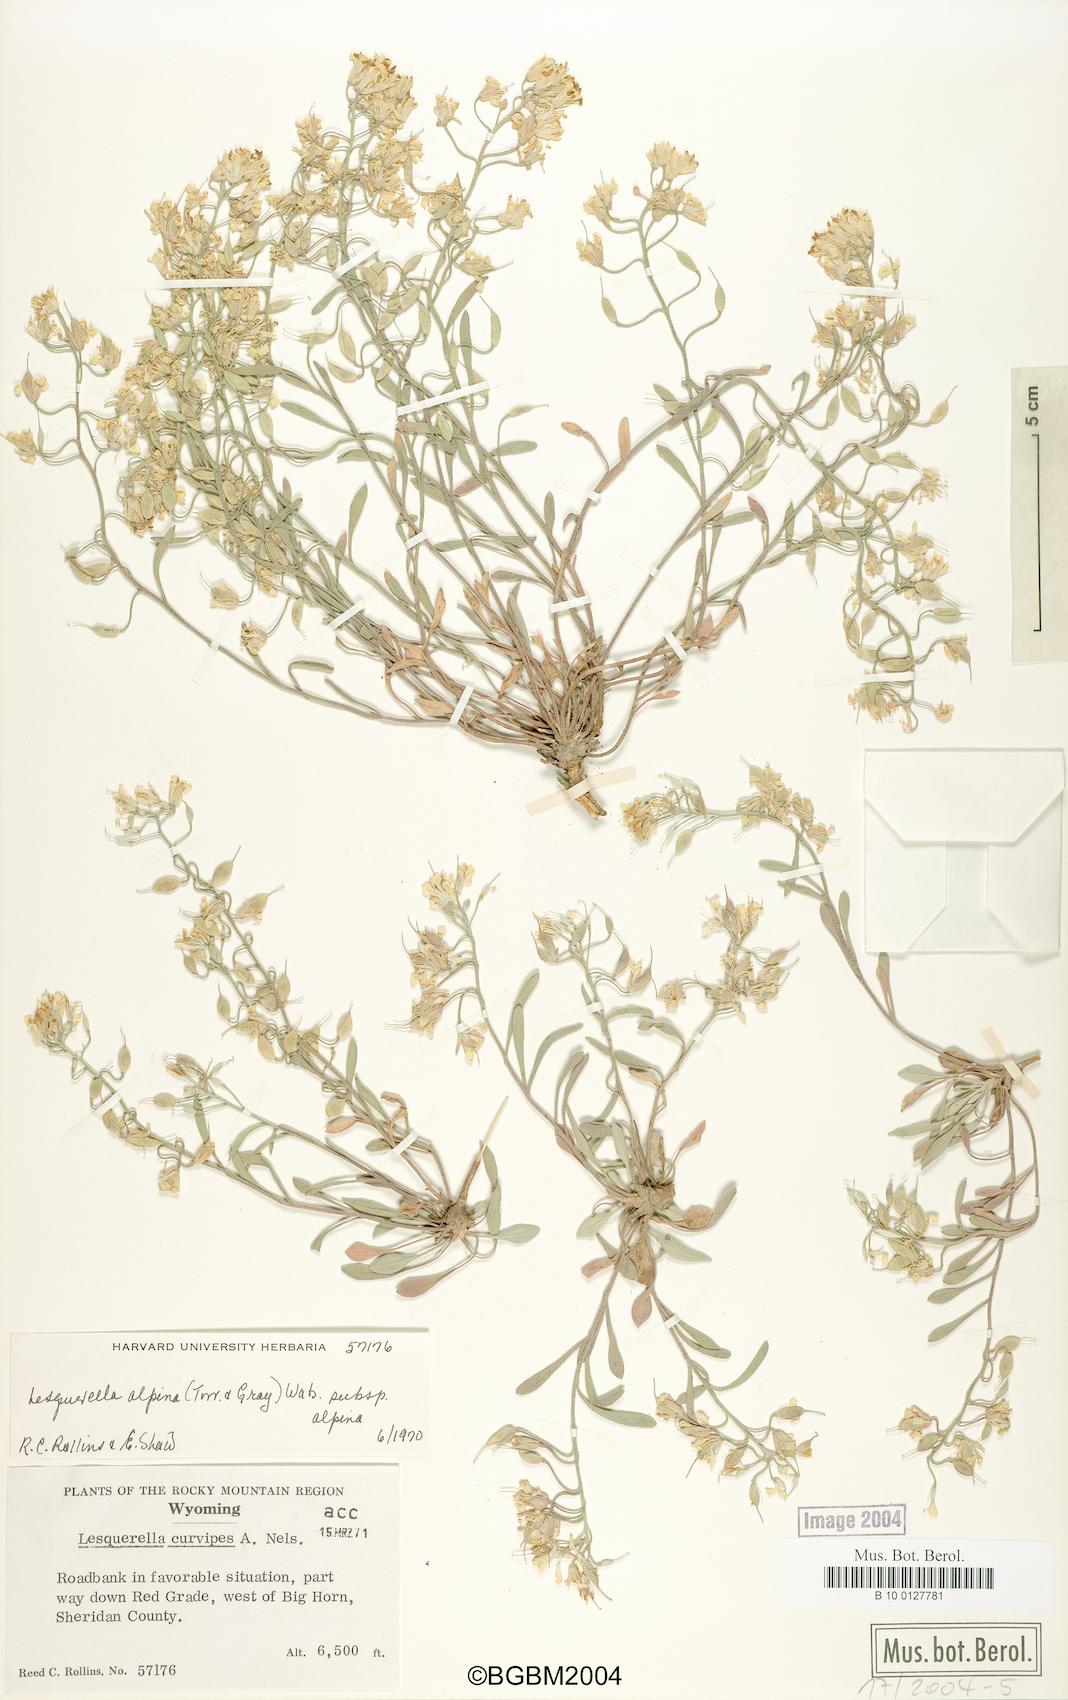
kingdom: Plantae
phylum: Tracheophyta
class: Magnoliopsida
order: Brassicales
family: Brassicaceae
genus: Physaria
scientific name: Physaria reediana
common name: Rollins's bladderpod
